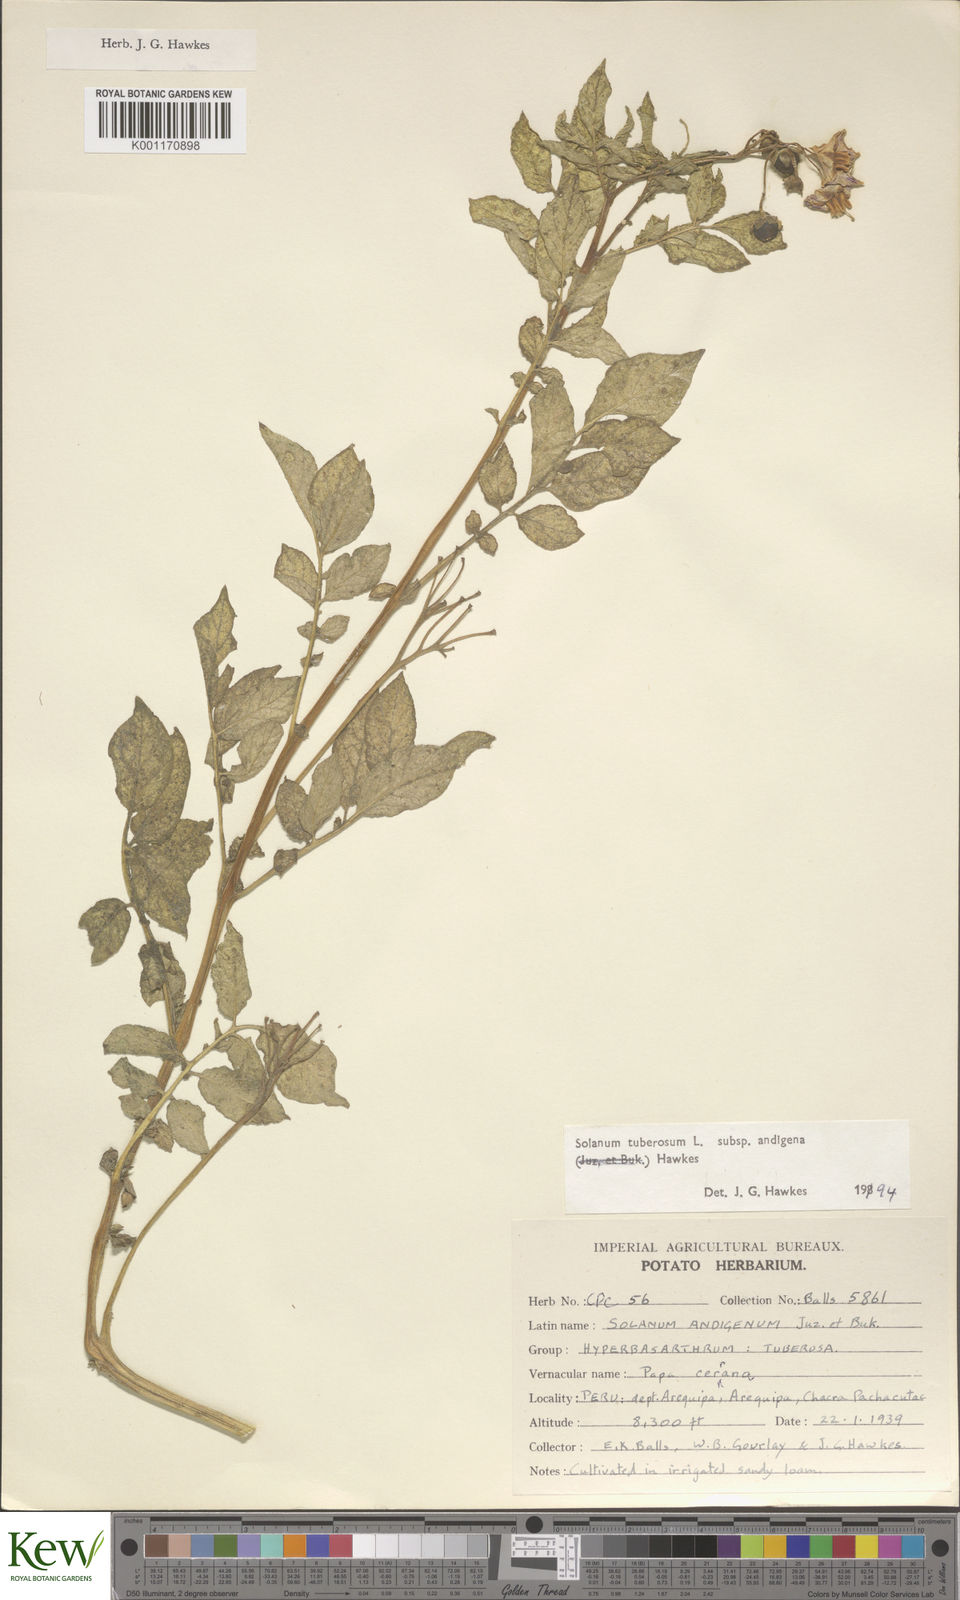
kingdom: Plantae
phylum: Tracheophyta
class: Magnoliopsida
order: Solanales
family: Solanaceae
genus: Solanum
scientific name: Solanum tuberosum
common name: Potato
